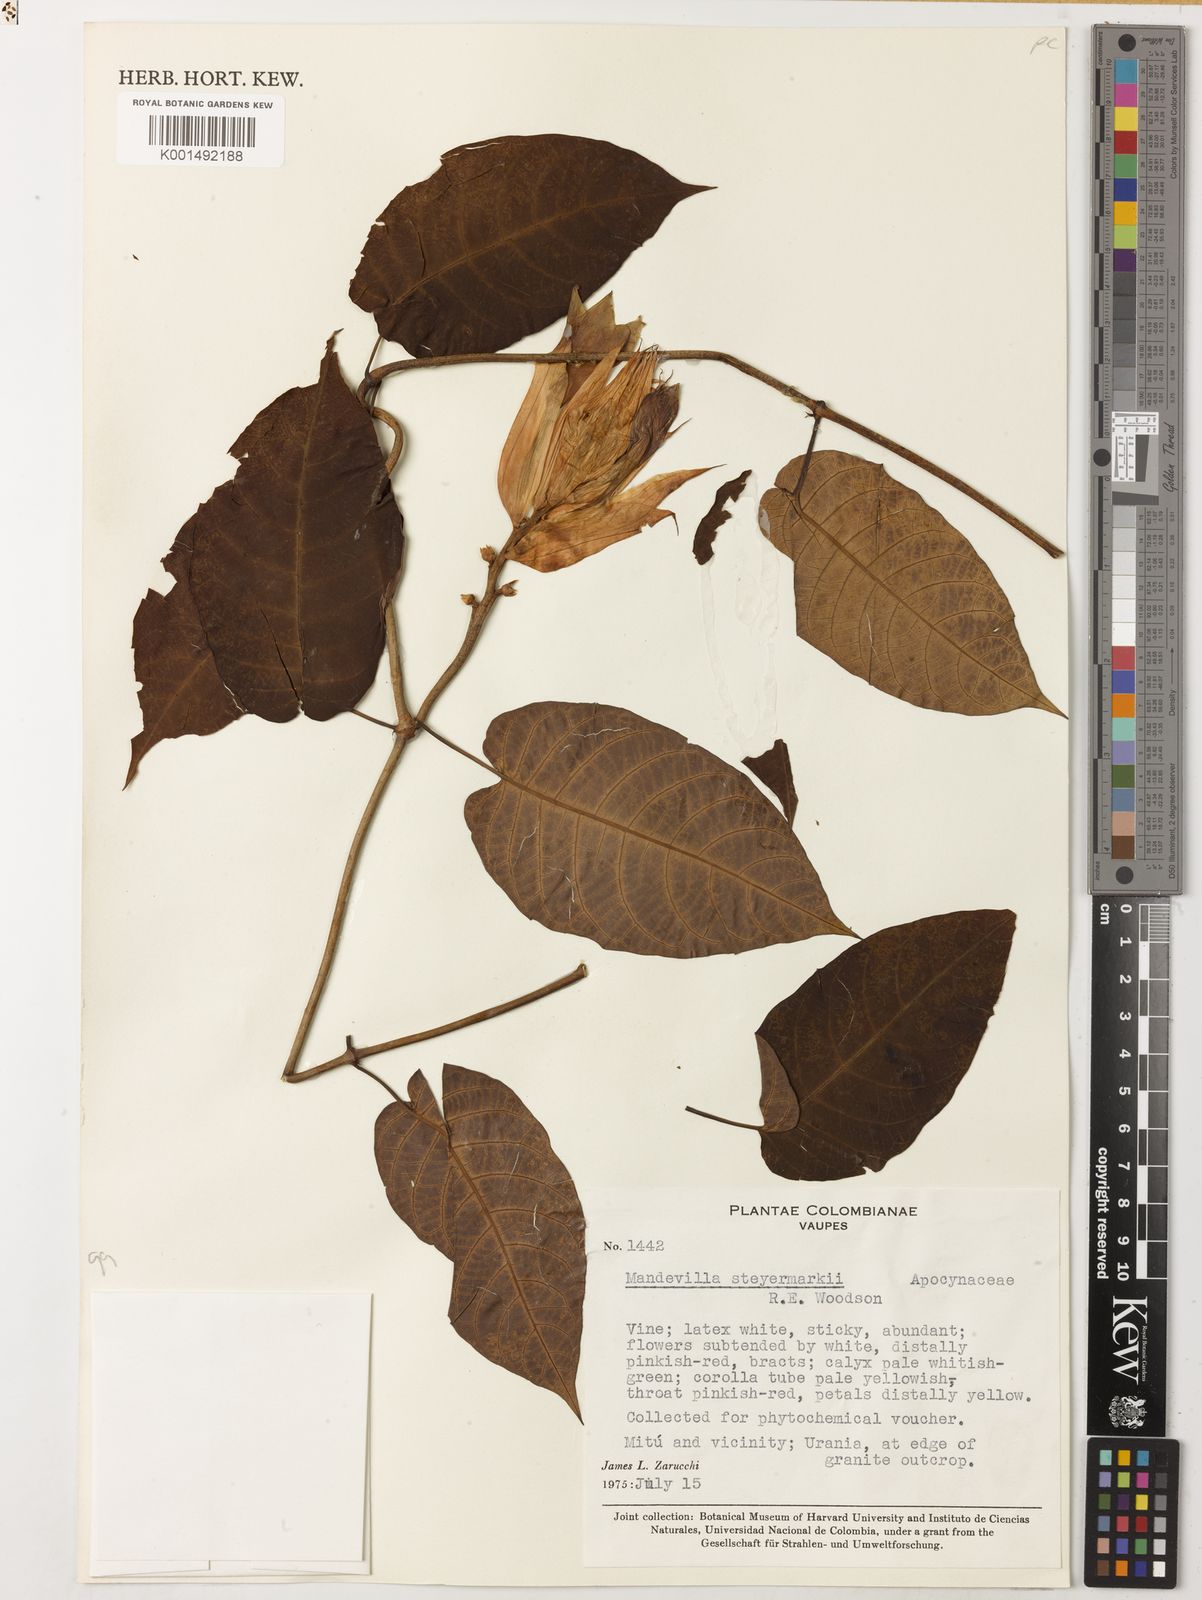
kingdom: Plantae
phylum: Tracheophyta
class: Magnoliopsida
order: Gentianales
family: Apocynaceae
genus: Mandevilla
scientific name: Mandevilla steyermarkii
